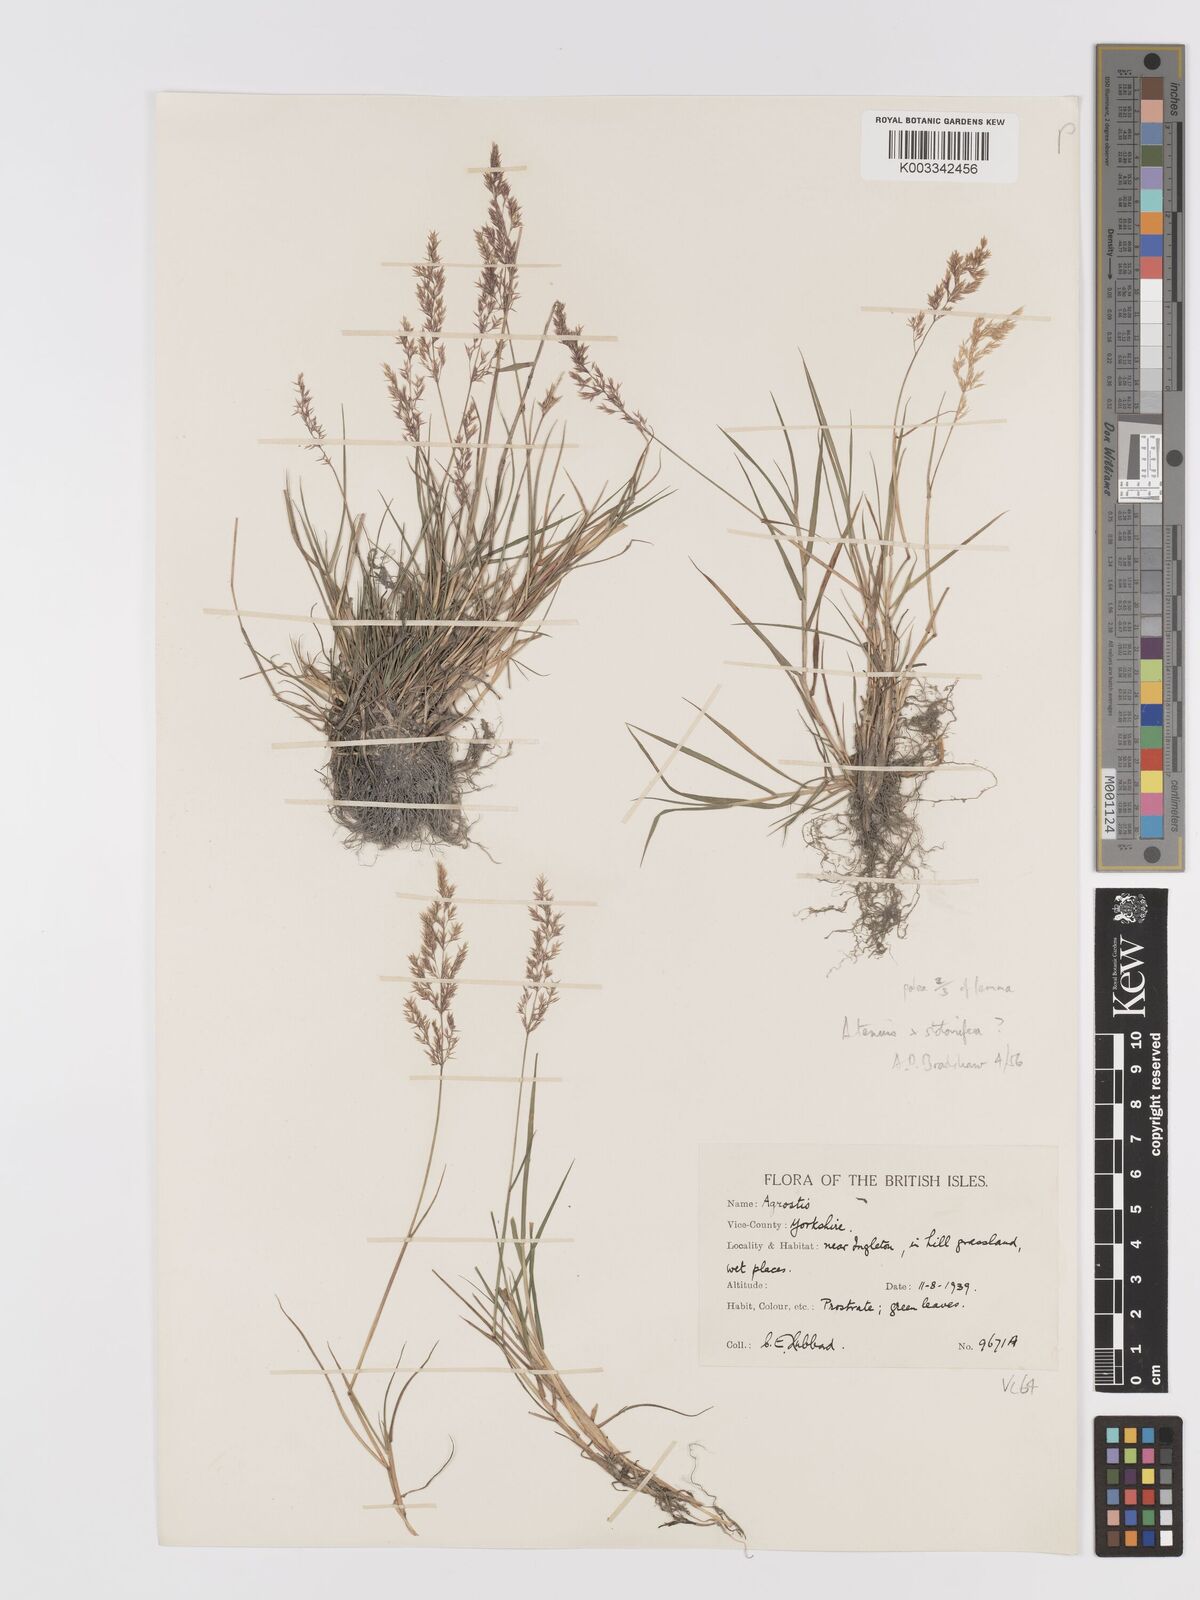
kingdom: Plantae
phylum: Tracheophyta
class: Liliopsida
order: Poales
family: Poaceae
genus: Agrostis
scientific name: Agrostis capillaris
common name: Colonial bentgrass
